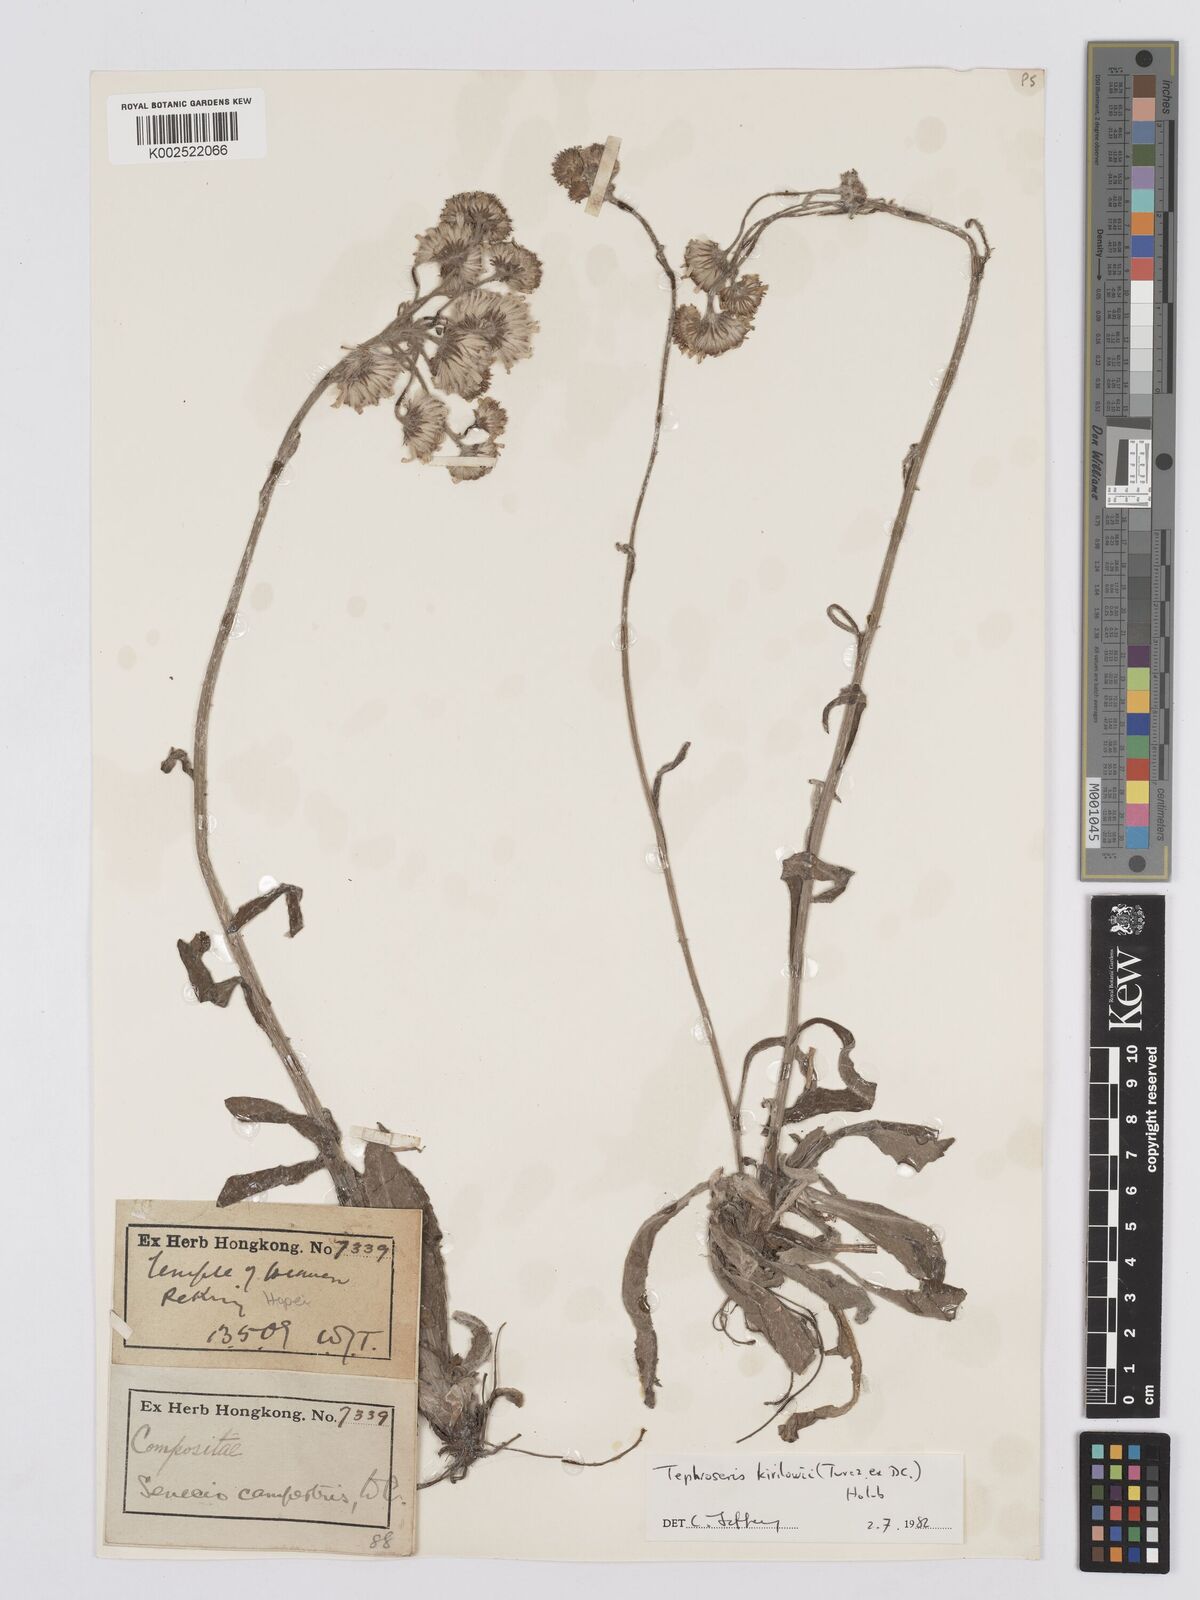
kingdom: Plantae
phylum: Tracheophyta
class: Magnoliopsida
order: Asterales
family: Asteraceae
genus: Tephroseris
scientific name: Tephroseris kirilowii
